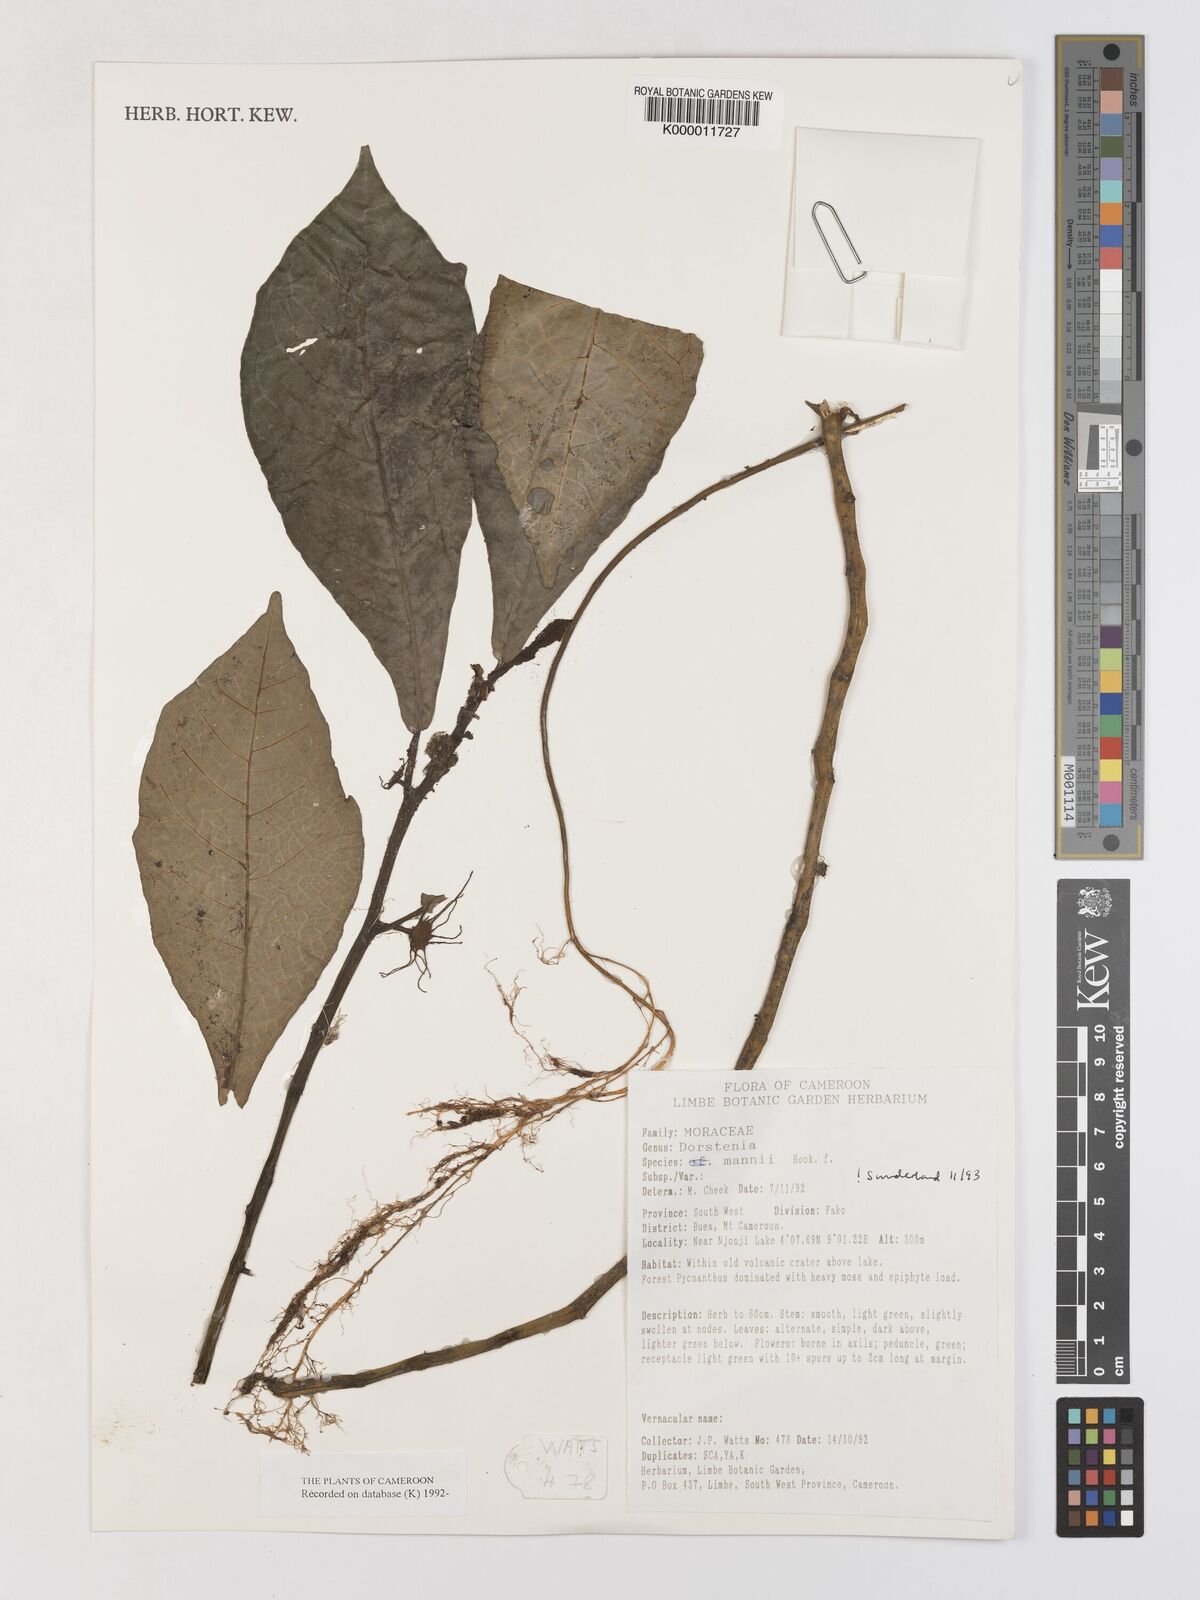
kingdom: Plantae
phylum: Tracheophyta
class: Magnoliopsida
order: Rosales
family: Moraceae
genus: Dorstenia
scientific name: Dorstenia mannii
